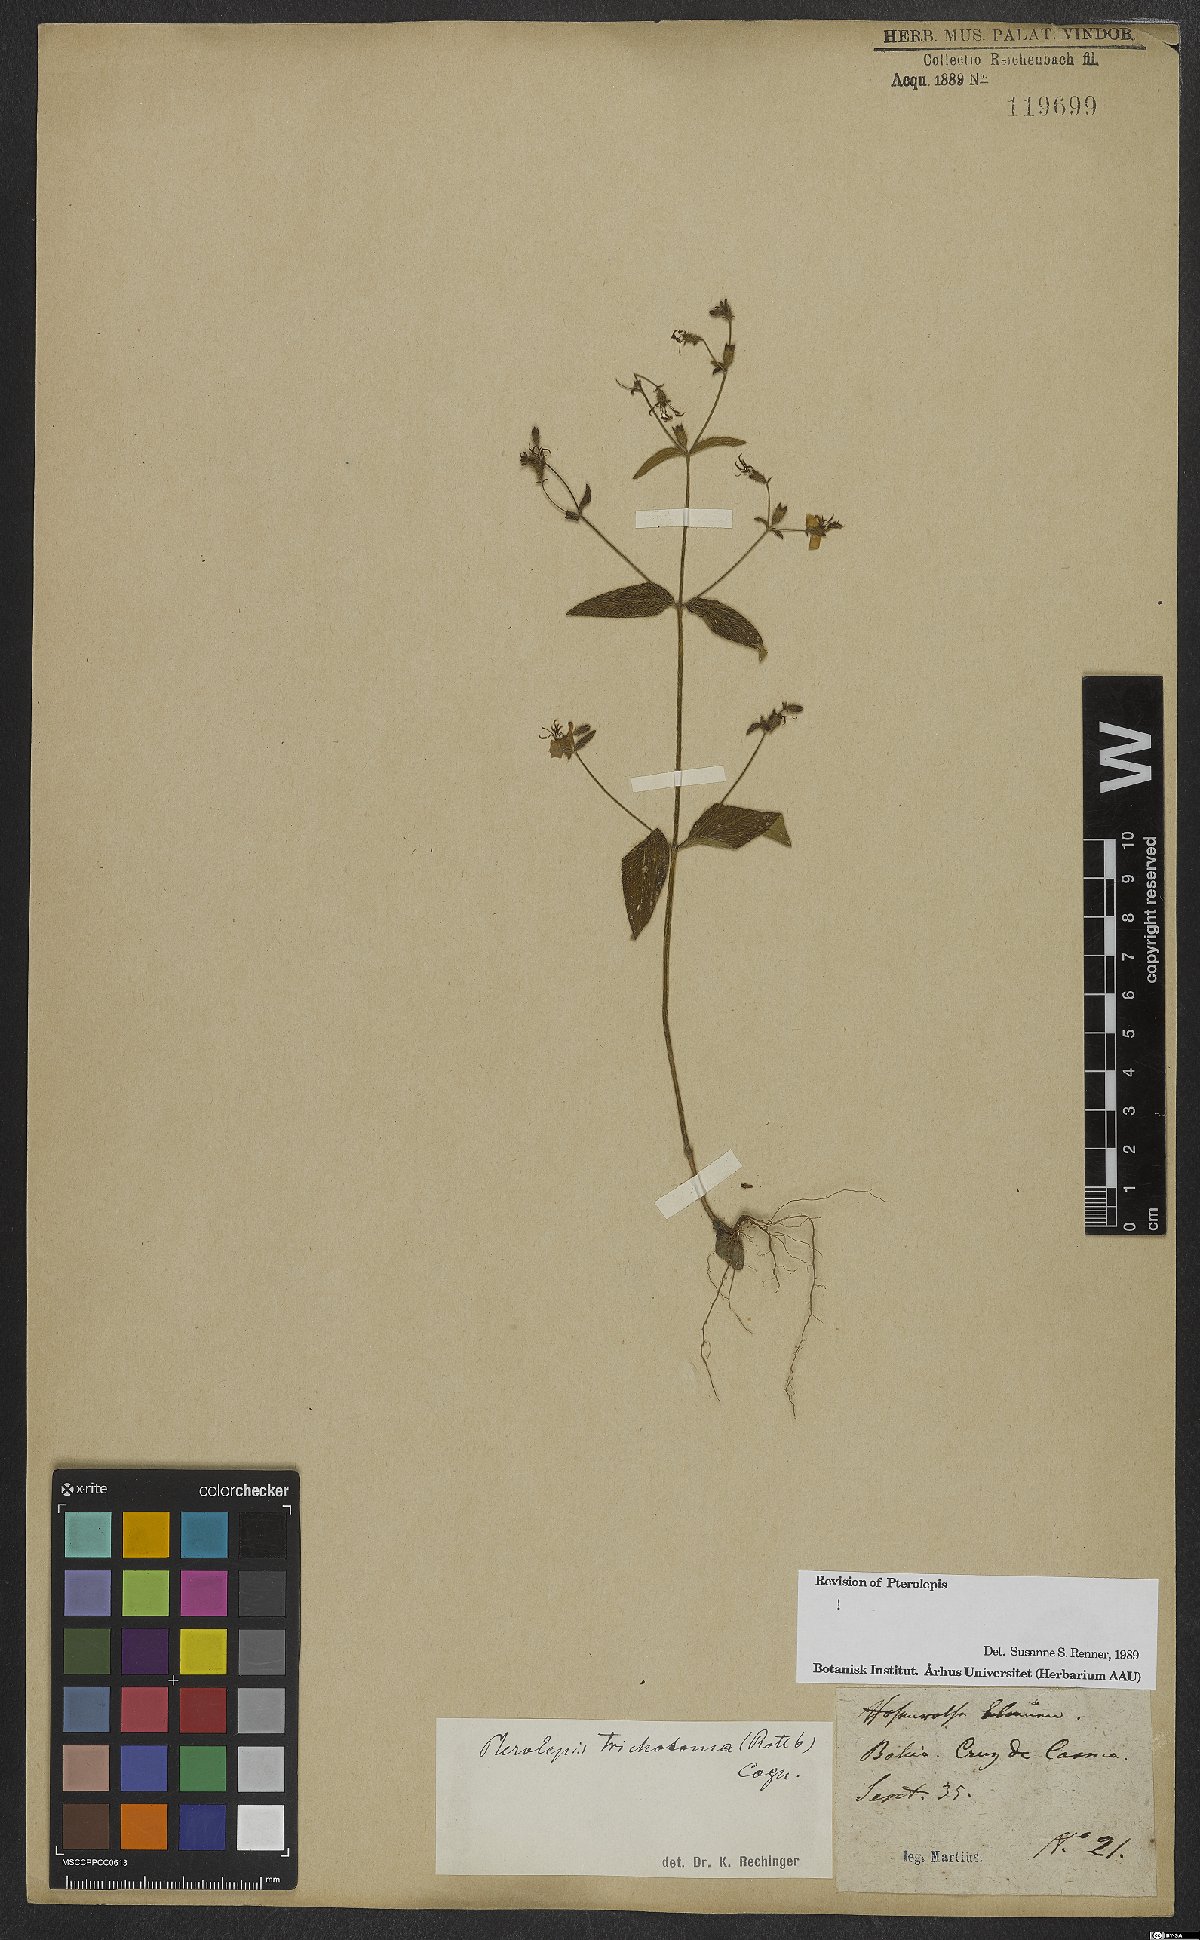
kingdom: Plantae
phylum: Tracheophyta
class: Magnoliopsida
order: Myrtales
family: Melastomataceae
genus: Pterolepis
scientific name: Pterolepis trichotoma
